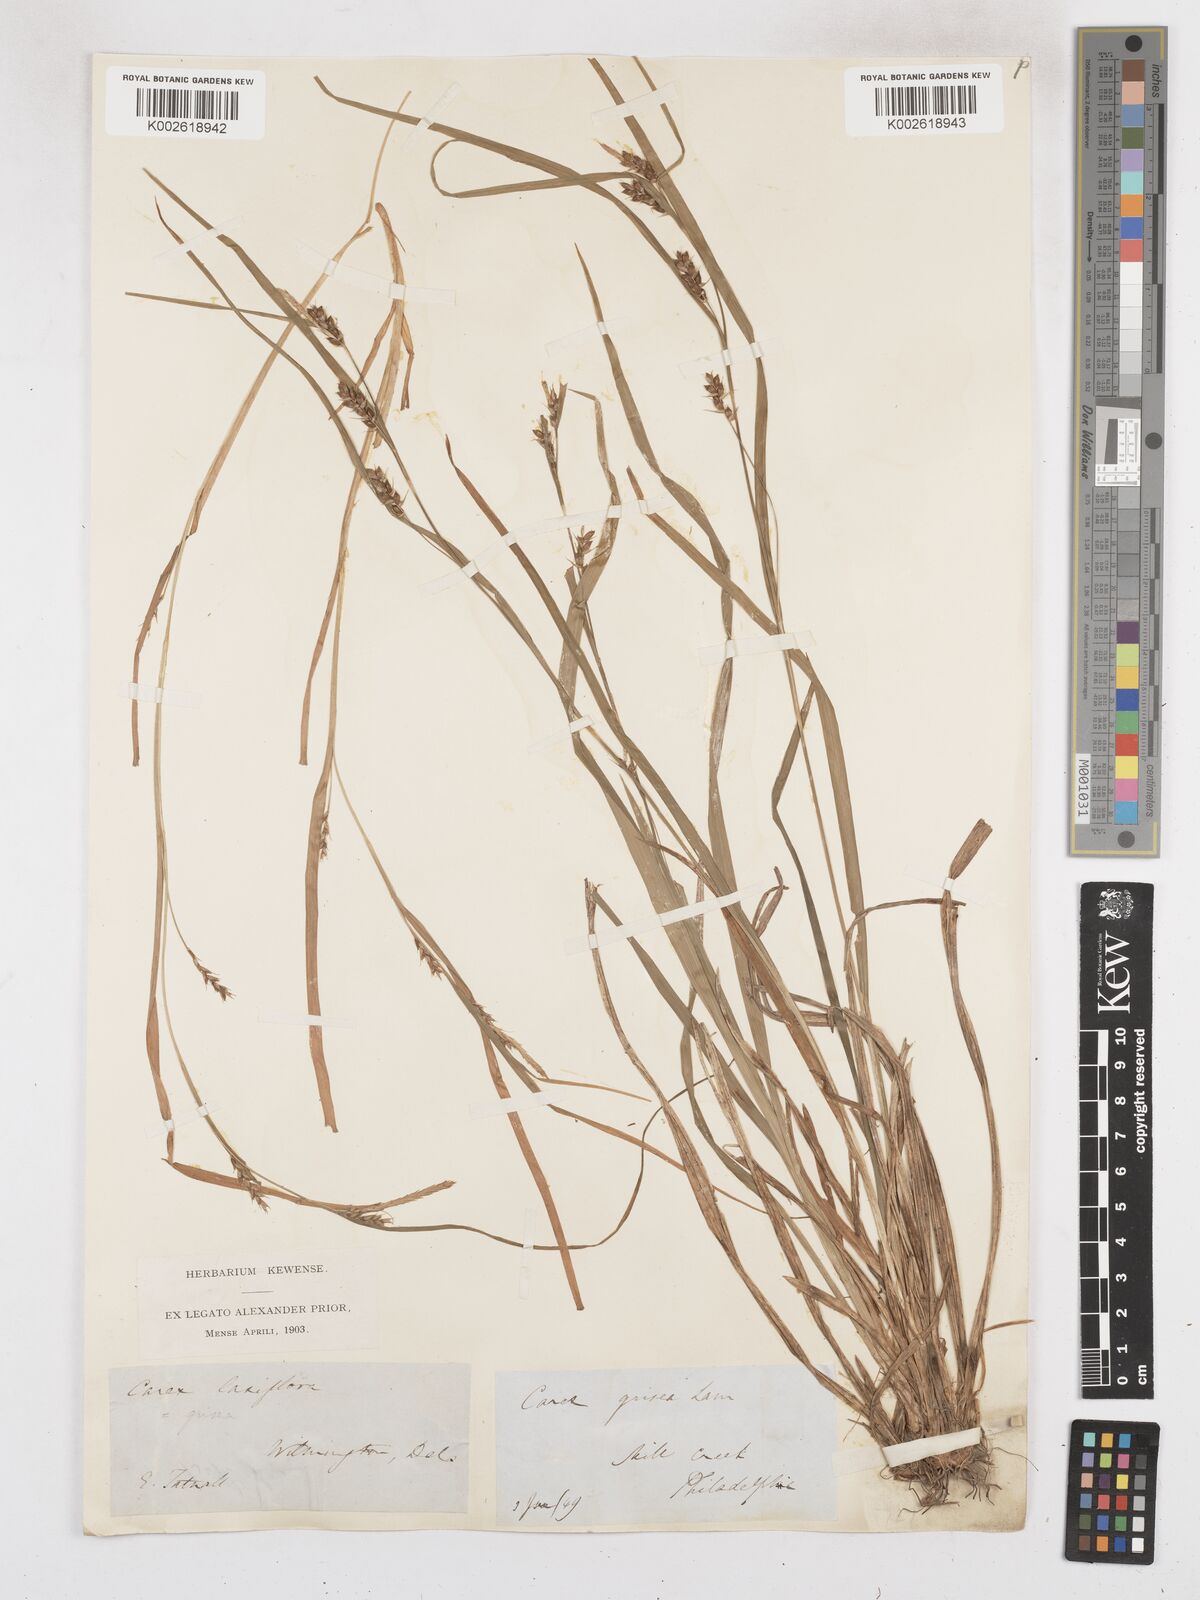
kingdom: Plantae
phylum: Tracheophyta
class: Liliopsida
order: Poales
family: Cyperaceae
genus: Carex
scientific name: Carex laxiflora
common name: Beech wood sedge
